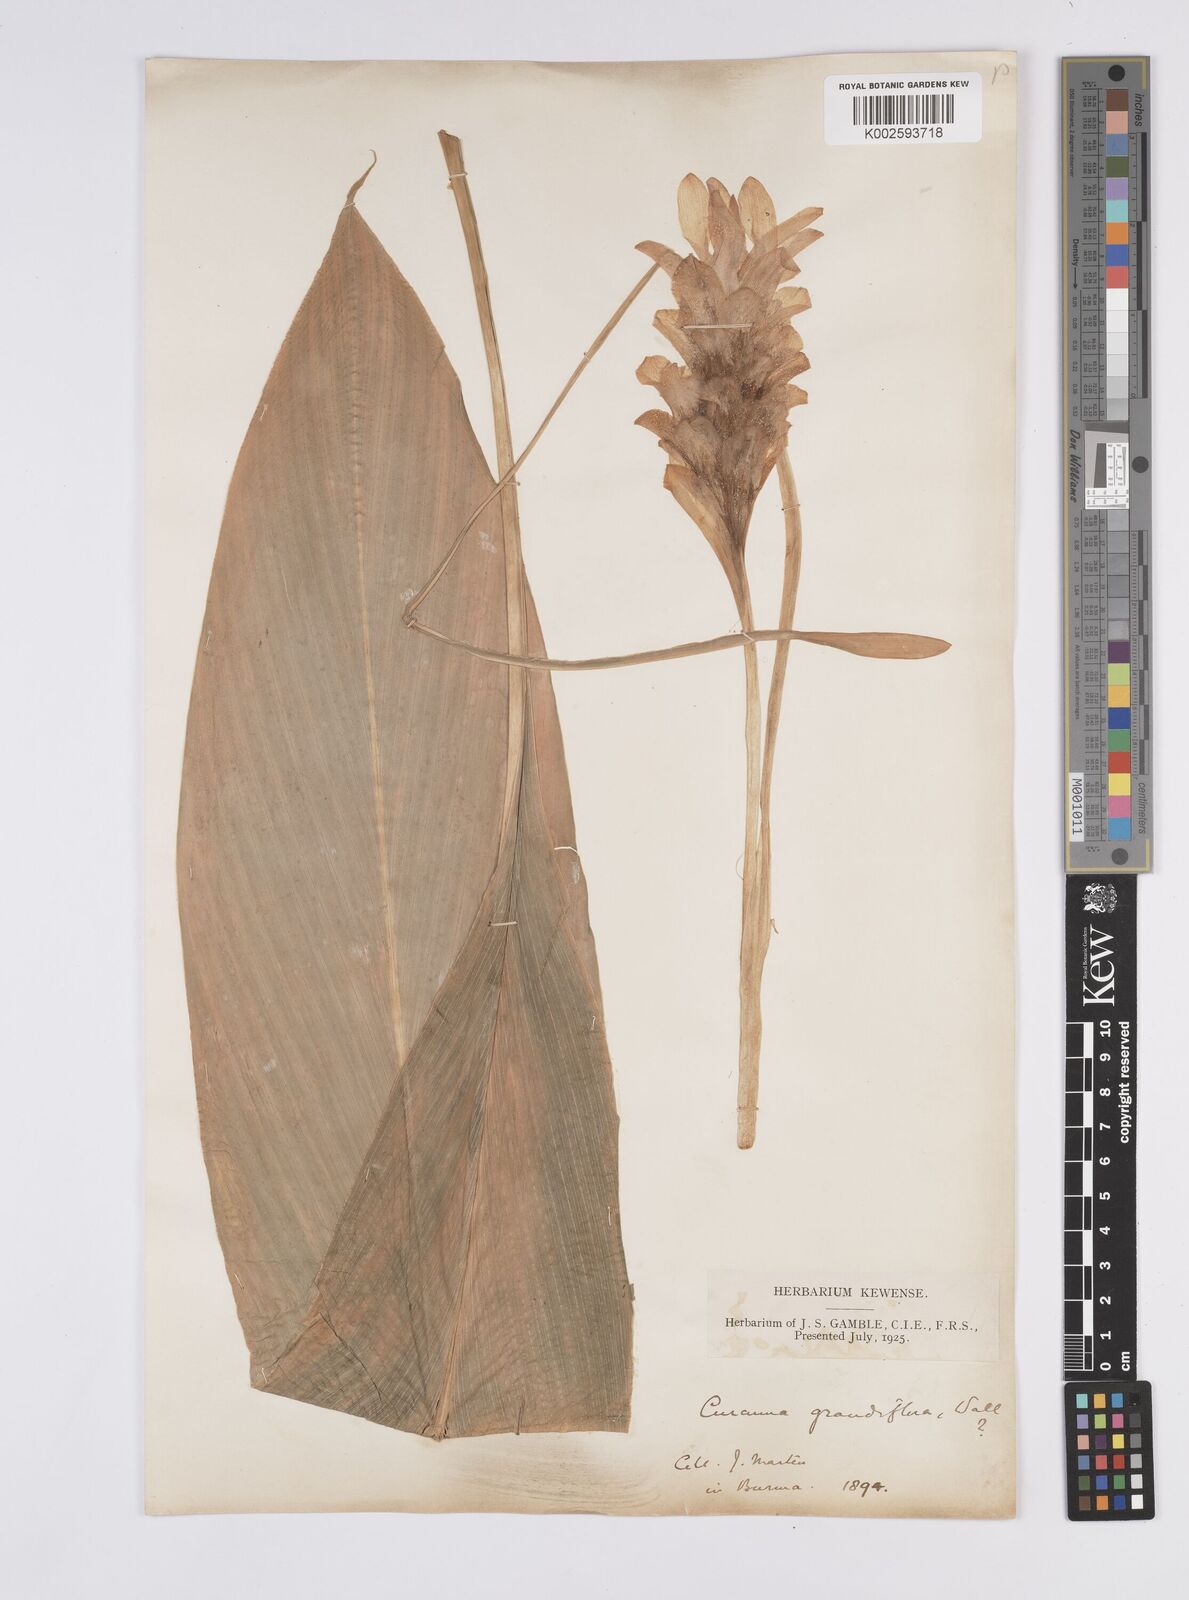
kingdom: Plantae
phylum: Tracheophyta
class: Liliopsida
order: Zingiberales
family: Zingiberaceae
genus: Curcuma
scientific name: Curcuma grandiflora
